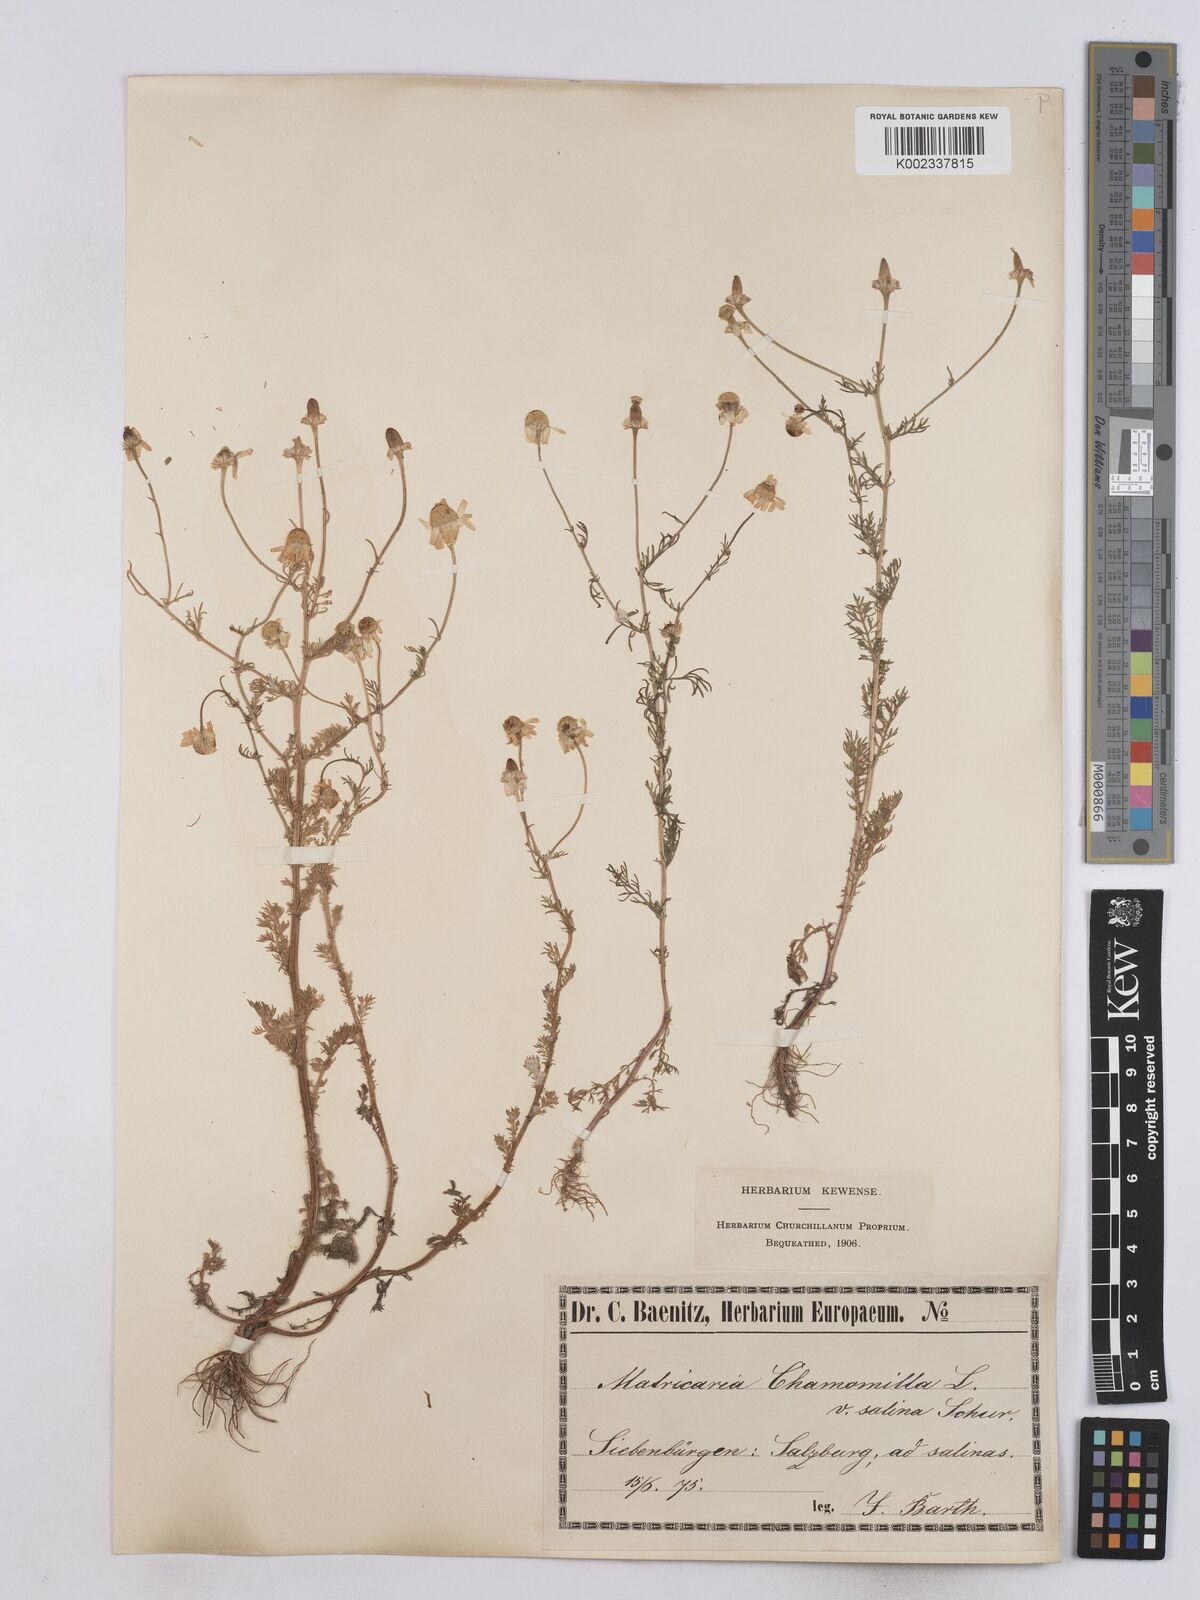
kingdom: Plantae
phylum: Tracheophyta
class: Magnoliopsida
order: Asterales
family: Asteraceae
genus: Matricaria
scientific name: Matricaria chamomilla
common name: Scented mayweed
